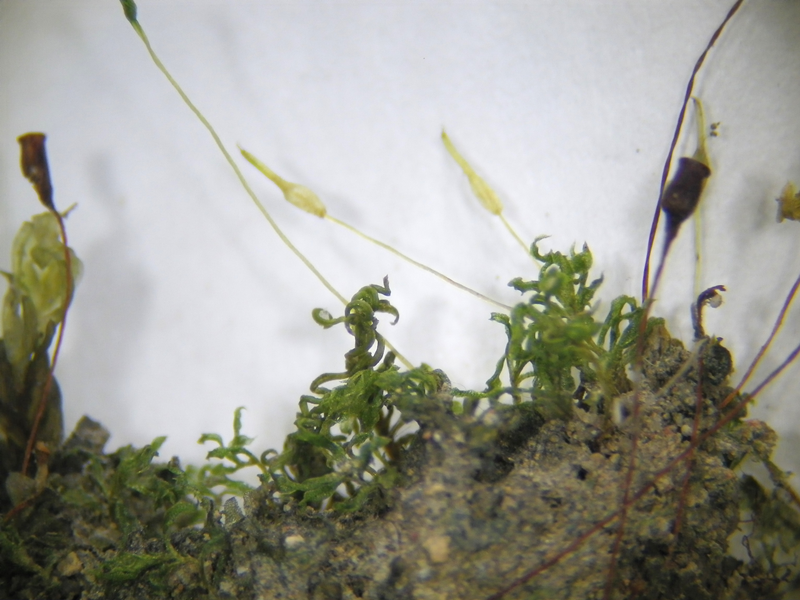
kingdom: Plantae
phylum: Bryophyta
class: Bryopsida
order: Funariales
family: Funariaceae
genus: Physcomitrium
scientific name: Physcomitrium eurystomum
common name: Norfolk bladder-moss
